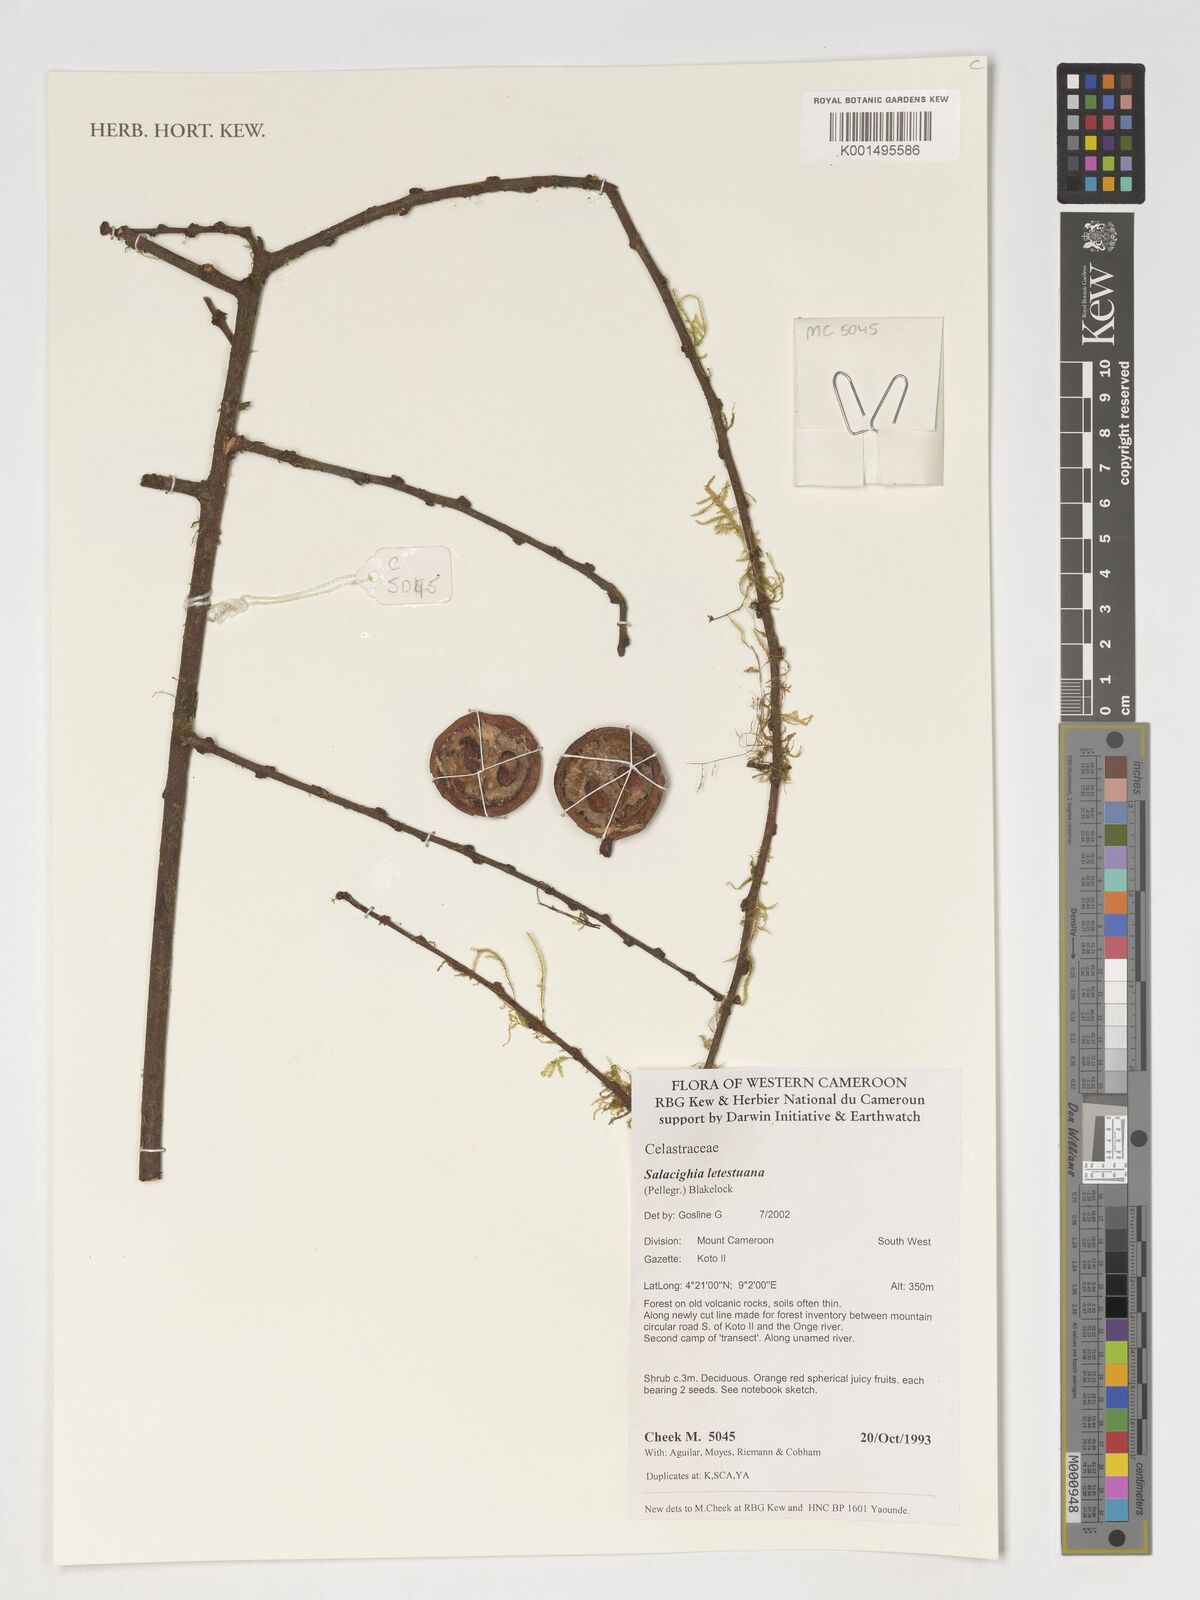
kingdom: Plantae
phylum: Tracheophyta
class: Magnoliopsida
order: Celastrales
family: Celastraceae
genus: Salacighia
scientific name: Salacighia letestuana
